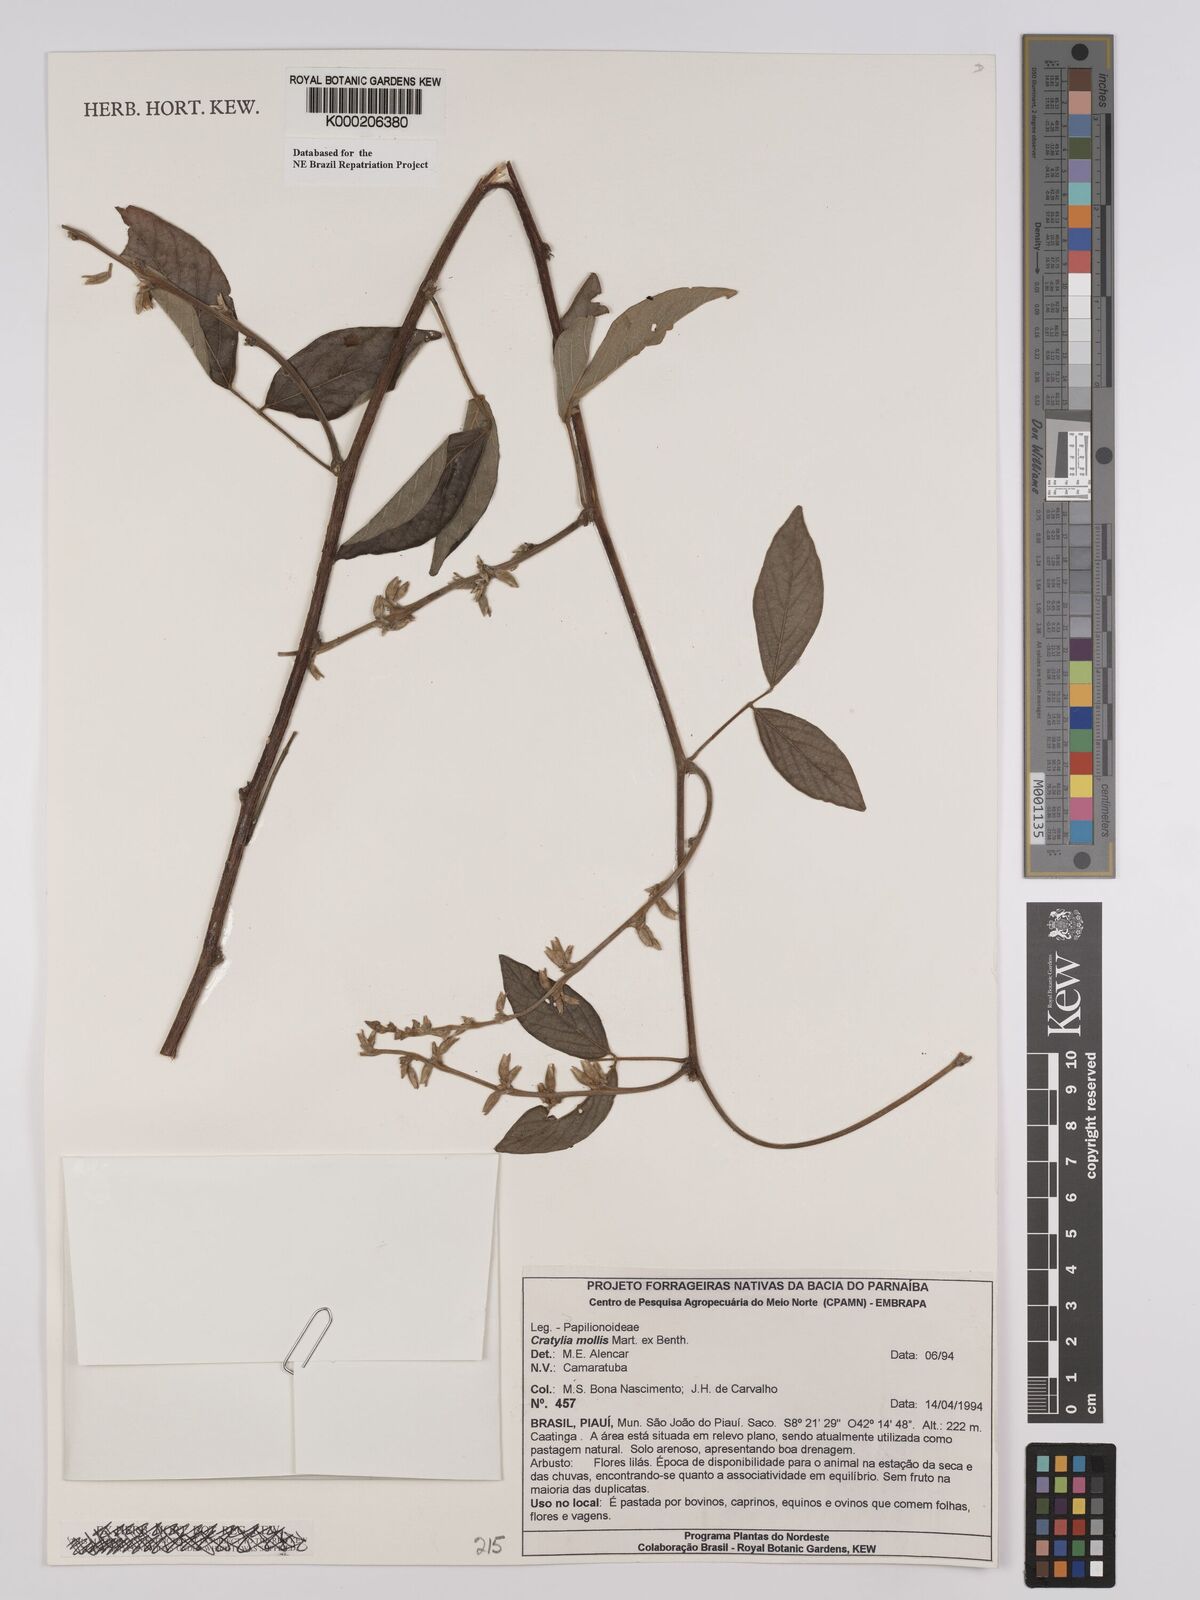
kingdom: Plantae
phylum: Tracheophyta
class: Magnoliopsida
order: Fabales
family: Fabaceae
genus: Cratylia
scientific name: Cratylia mollis
